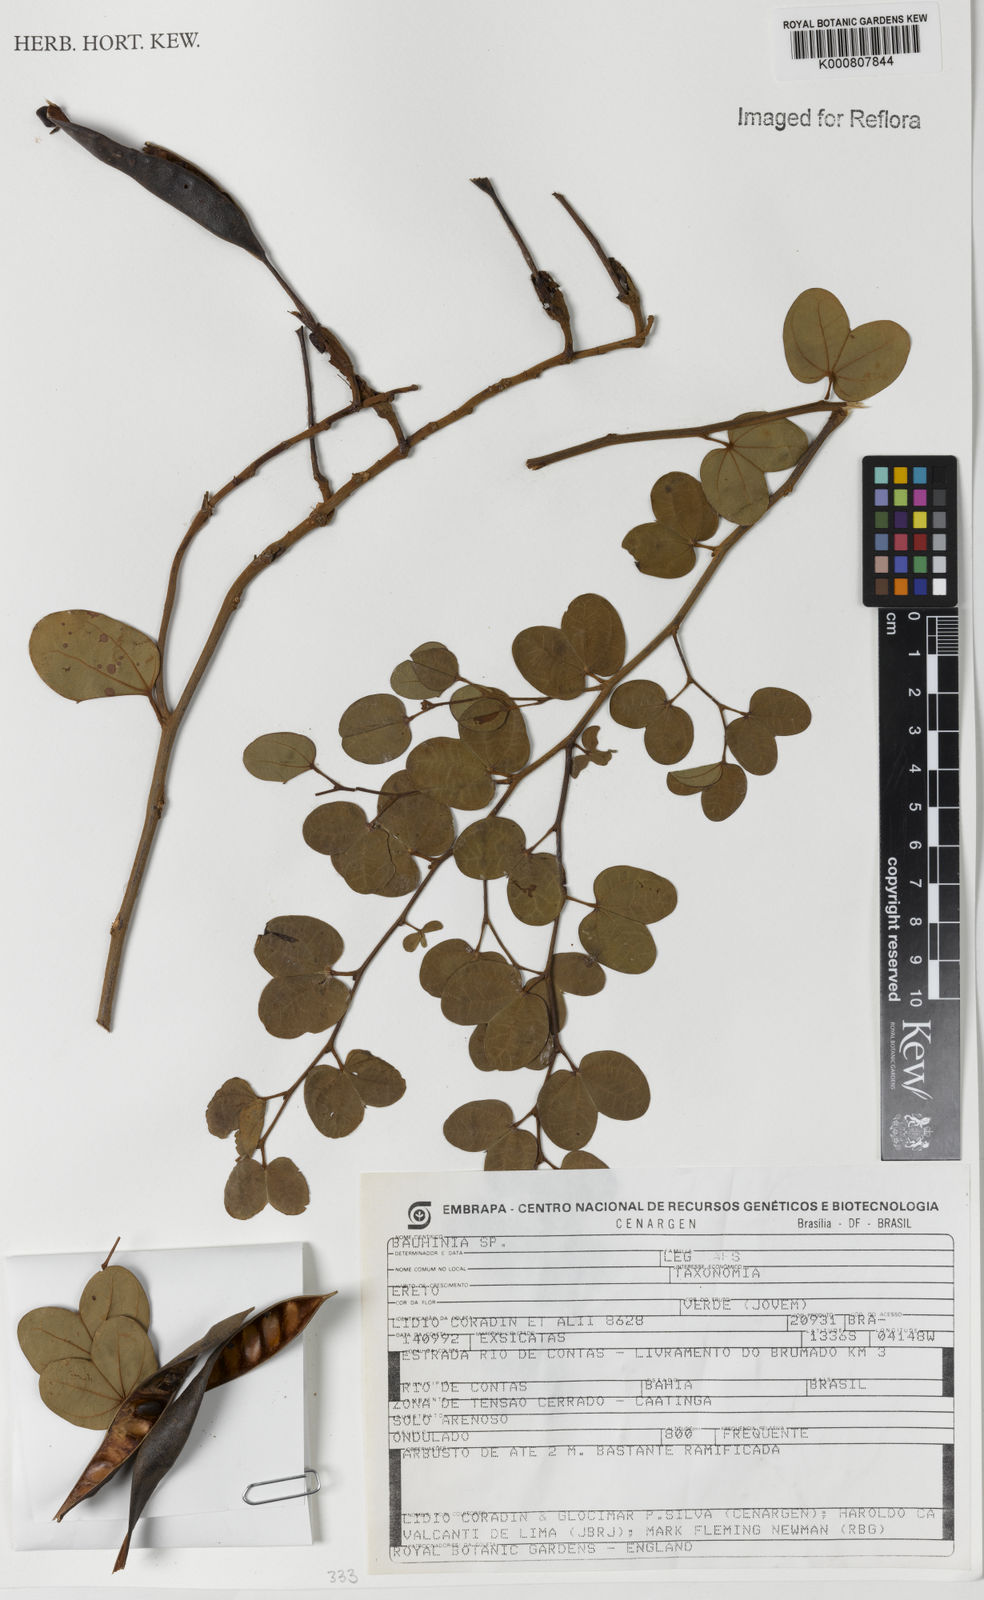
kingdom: Plantae
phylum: Tracheophyta
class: Magnoliopsida
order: Fabales
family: Fabaceae
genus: Bauhinia
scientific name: Bauhinia
